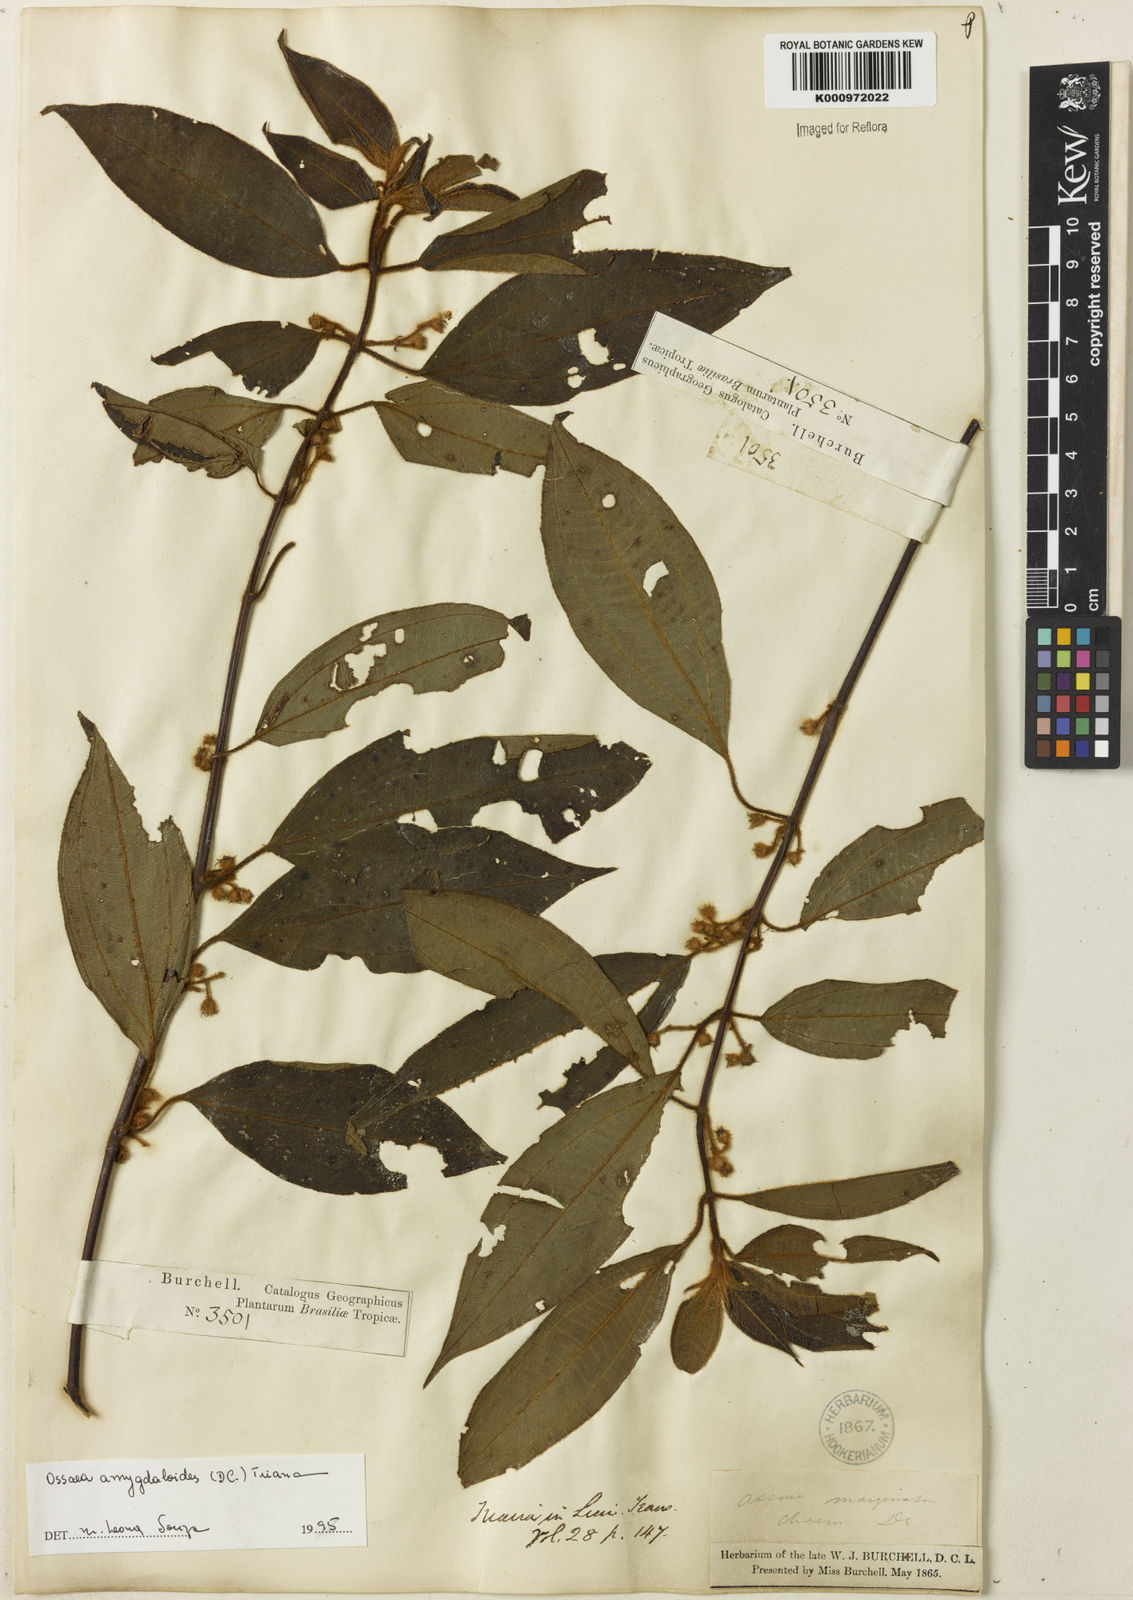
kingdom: Plantae
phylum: Tracheophyta
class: Magnoliopsida
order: Myrtales
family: Melastomataceae
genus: Miconia
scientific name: Miconia amygdaloides
